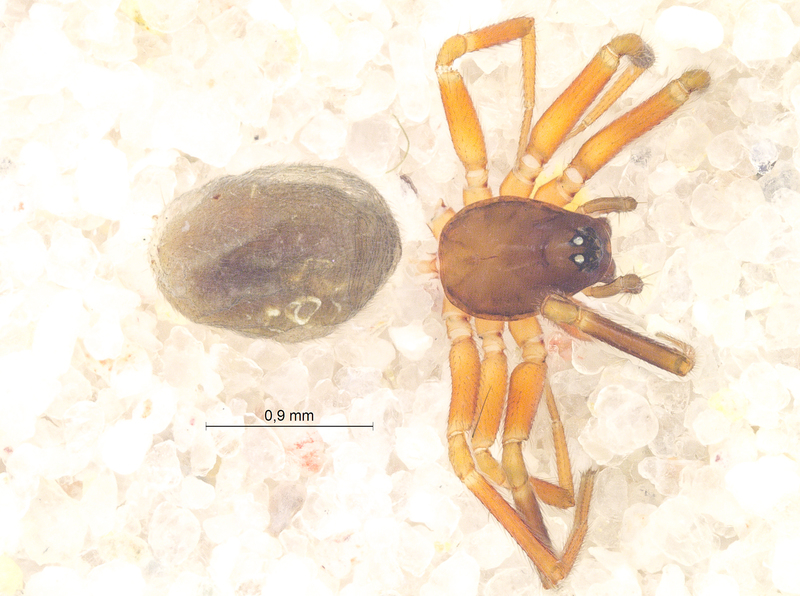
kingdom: Animalia
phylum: Arthropoda
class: Arachnida
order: Araneae
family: Linyphiidae
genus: Walckenaeria
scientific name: Walckenaeria antica
